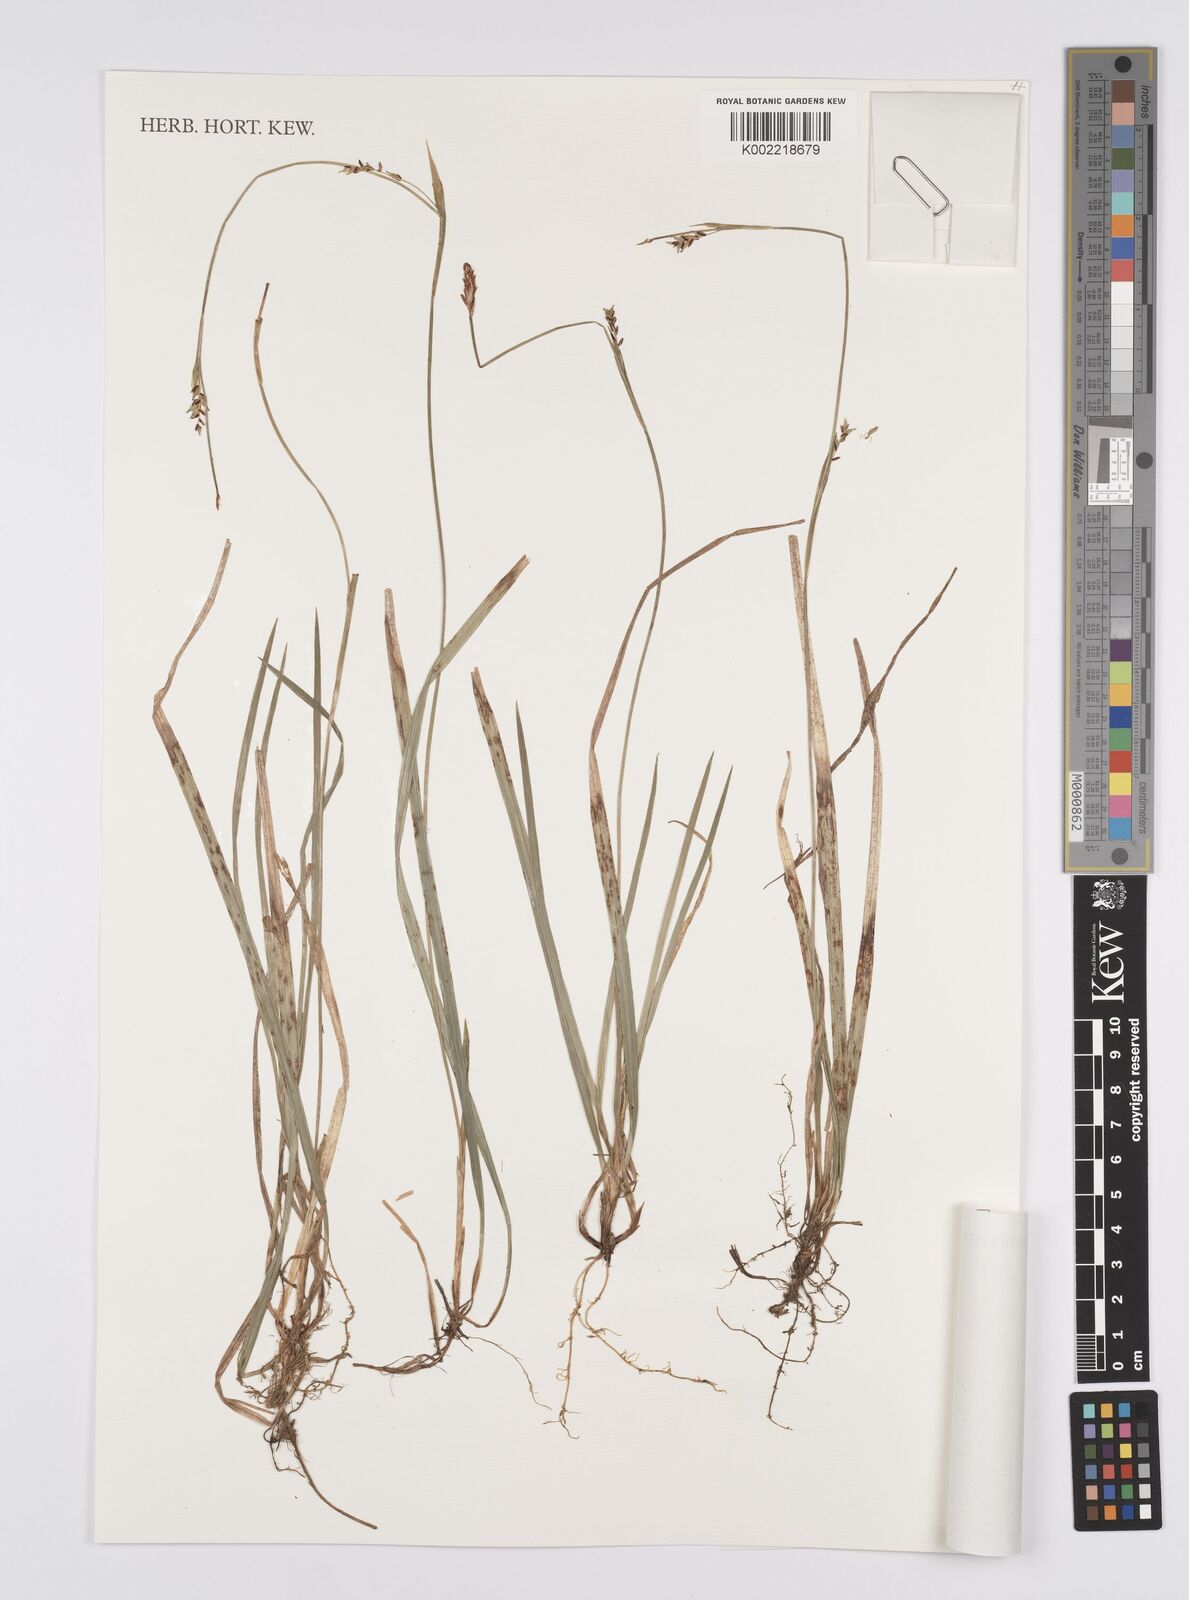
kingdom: Plantae
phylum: Tracheophyta
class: Liliopsida
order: Poales
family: Cyperaceae
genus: Carex
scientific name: Carex vaginata
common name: Sheathed sedge
